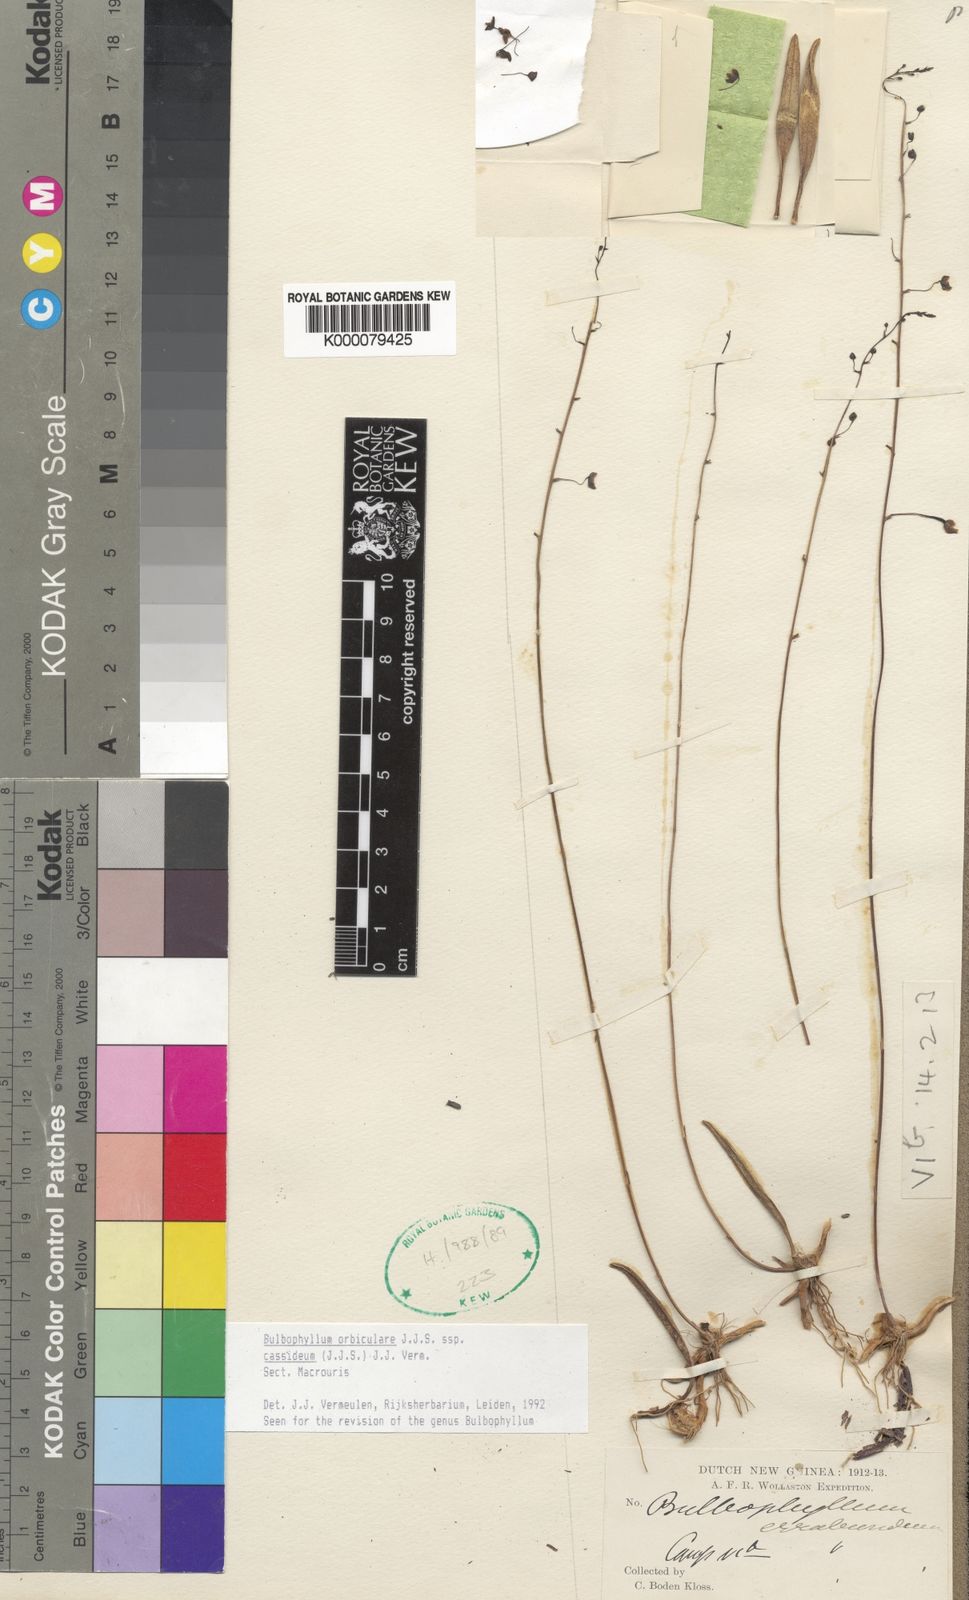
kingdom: Plantae
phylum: Tracheophyta
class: Liliopsida
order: Asparagales
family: Orchidaceae
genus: Bulbophyllum
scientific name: Bulbophyllum orbiculare
